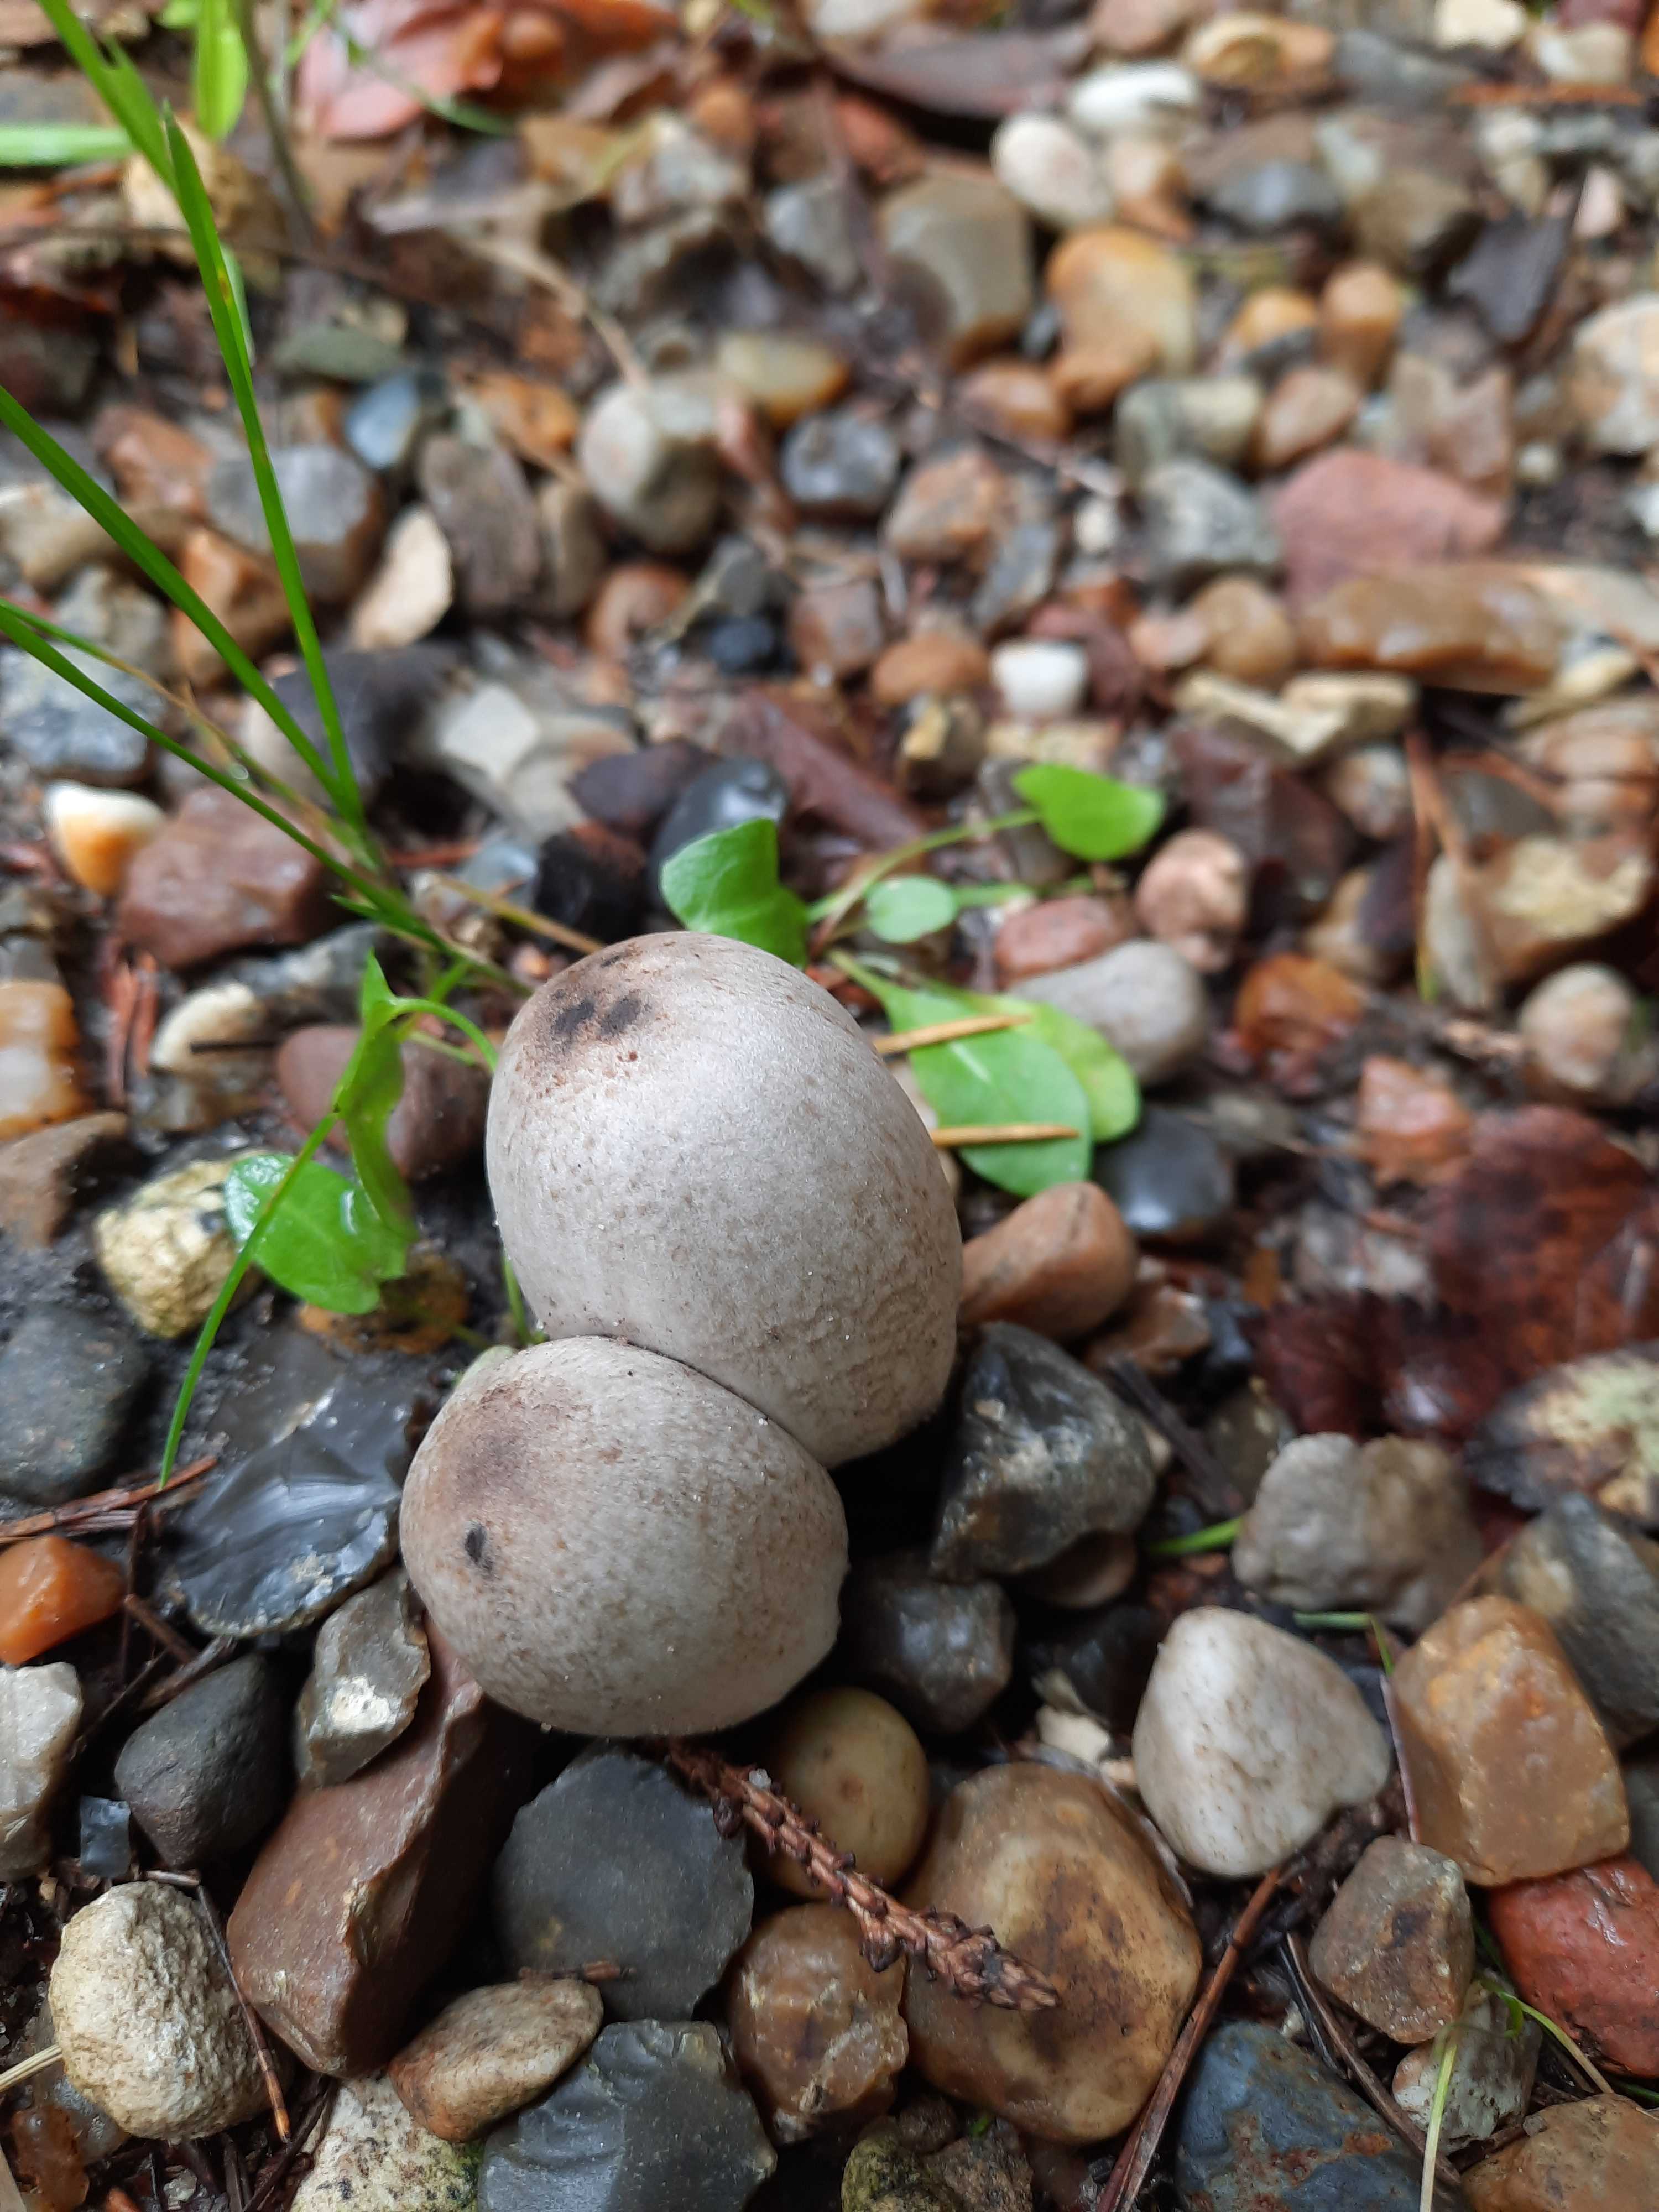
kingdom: Fungi
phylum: Basidiomycota
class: Agaricomycetes
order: Agaricales
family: Psathyrellaceae
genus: Coprinopsis
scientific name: Coprinopsis romagnesiana
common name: brunskællet blækhat
